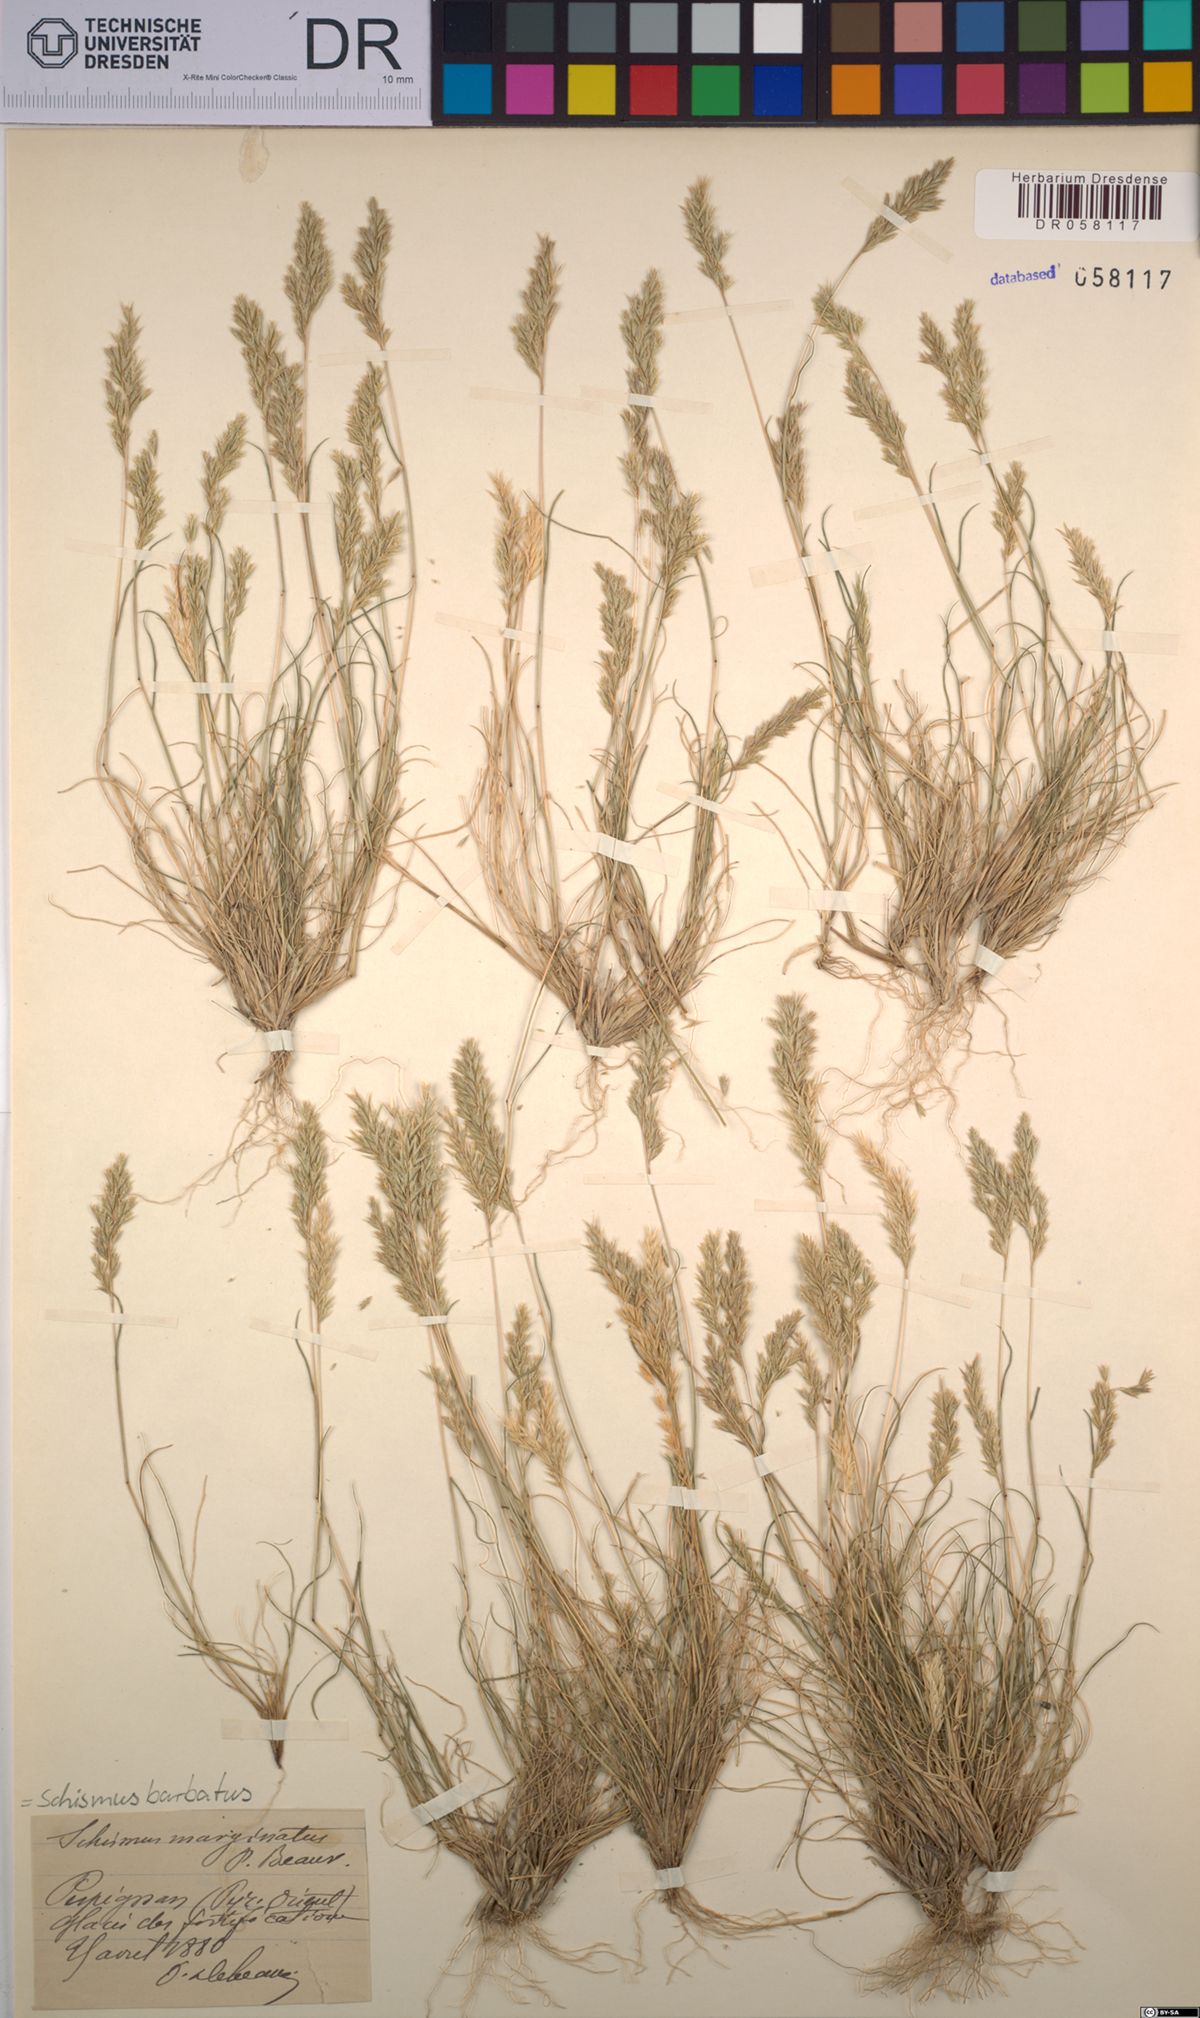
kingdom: Plantae
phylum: Tracheophyta
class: Liliopsida
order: Poales
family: Poaceae
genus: Schismus
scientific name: Schismus barbatus
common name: Kelch-grass
